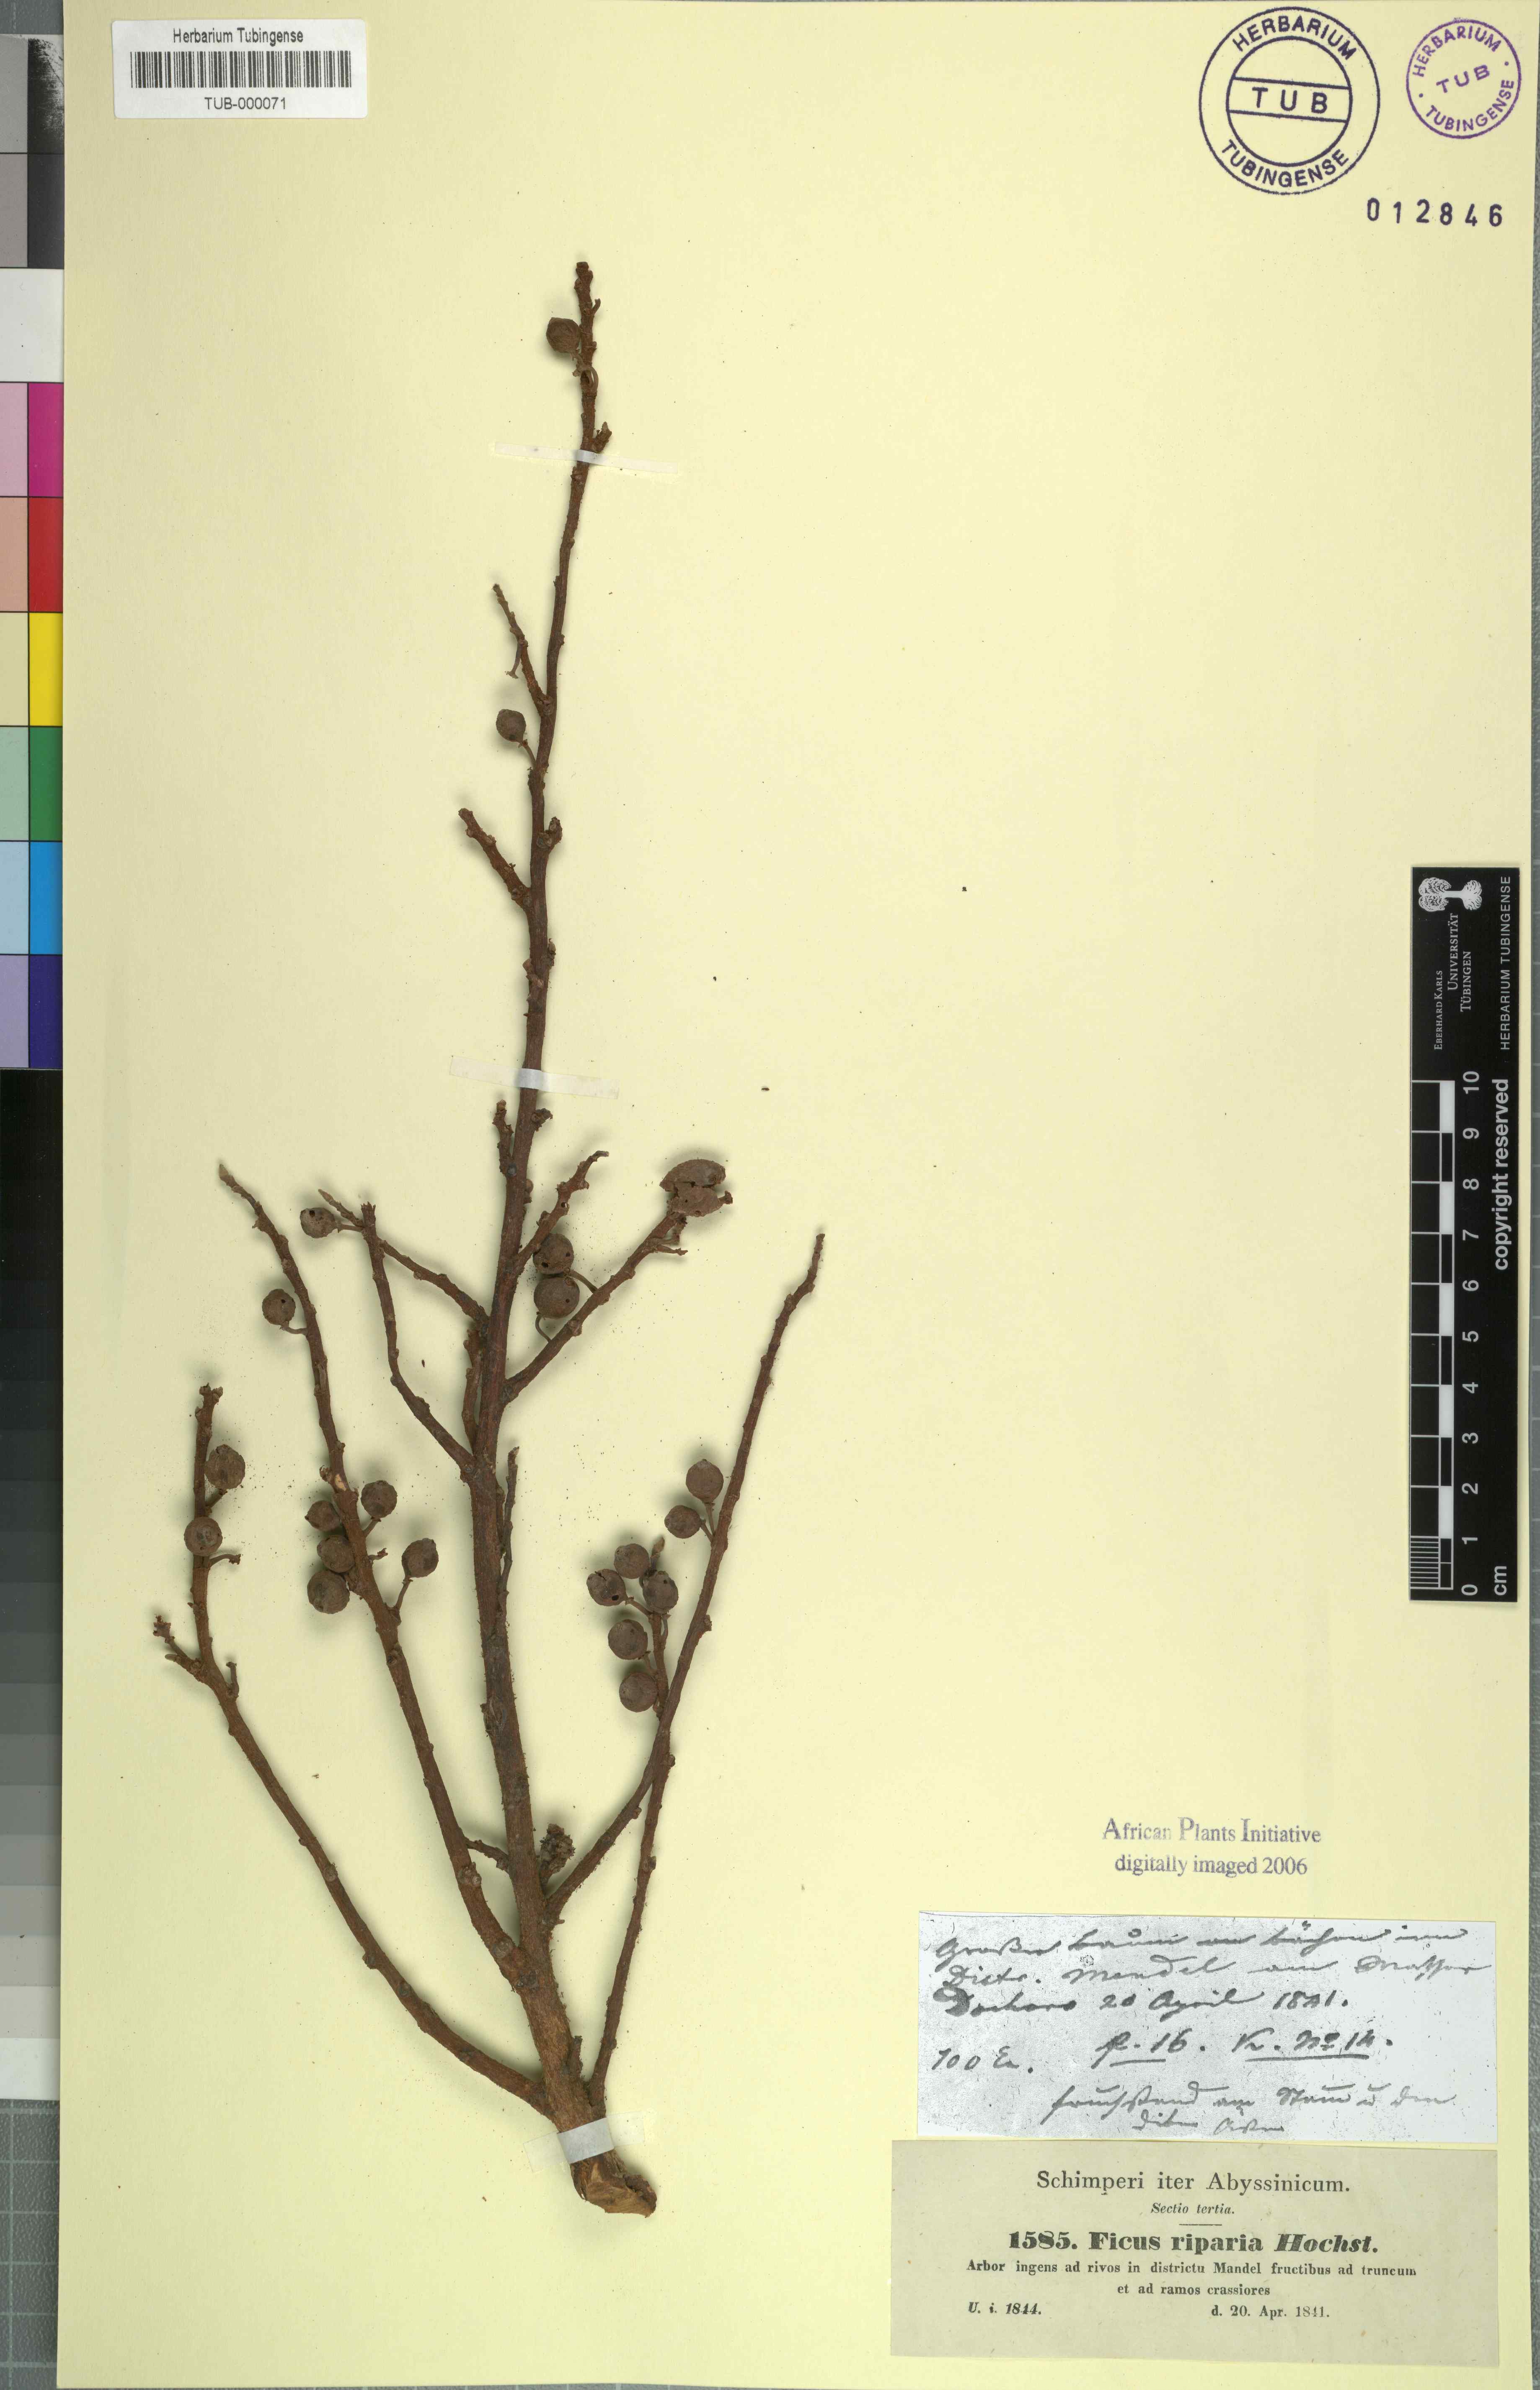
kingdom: Plantae
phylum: Tracheophyta
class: Magnoliopsida
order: Rosales
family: Moraceae
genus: Ficus
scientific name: Ficus riparia
